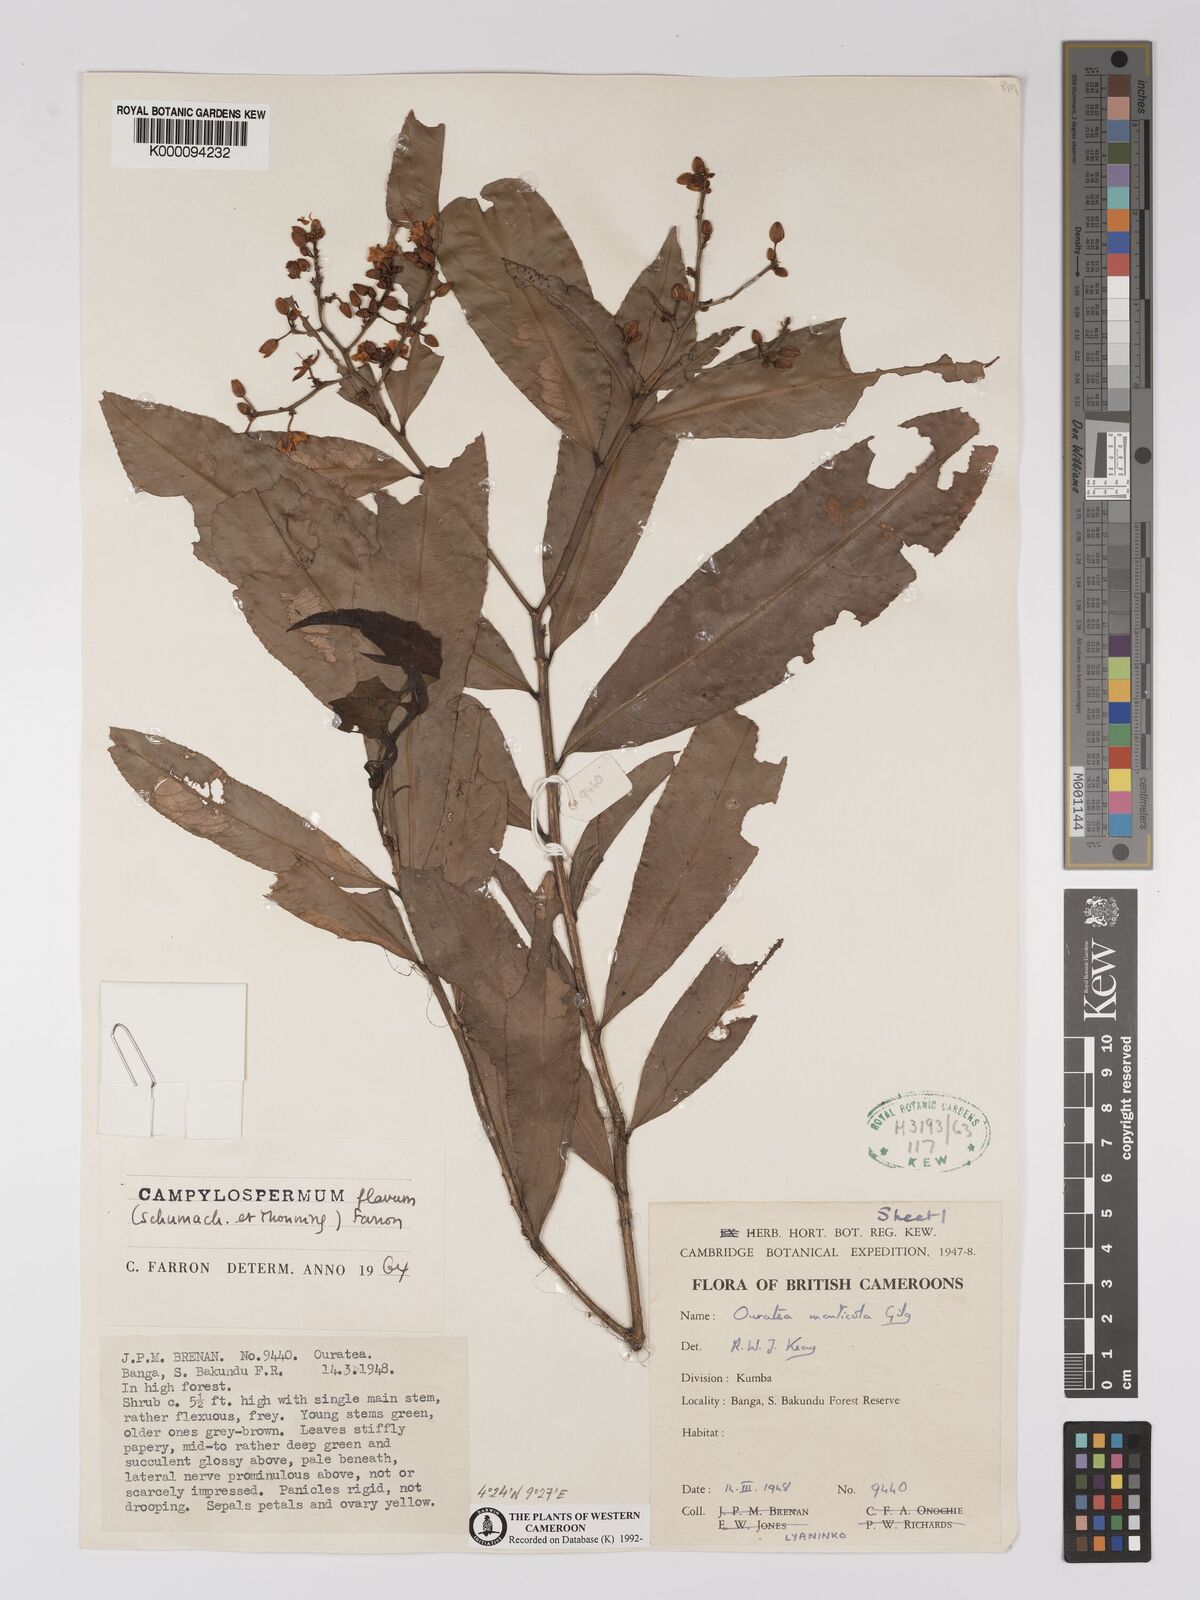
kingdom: Plantae
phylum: Tracheophyta
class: Magnoliopsida
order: Malpighiales
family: Ochnaceae
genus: Campylospermum
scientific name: Campylospermum flavum
